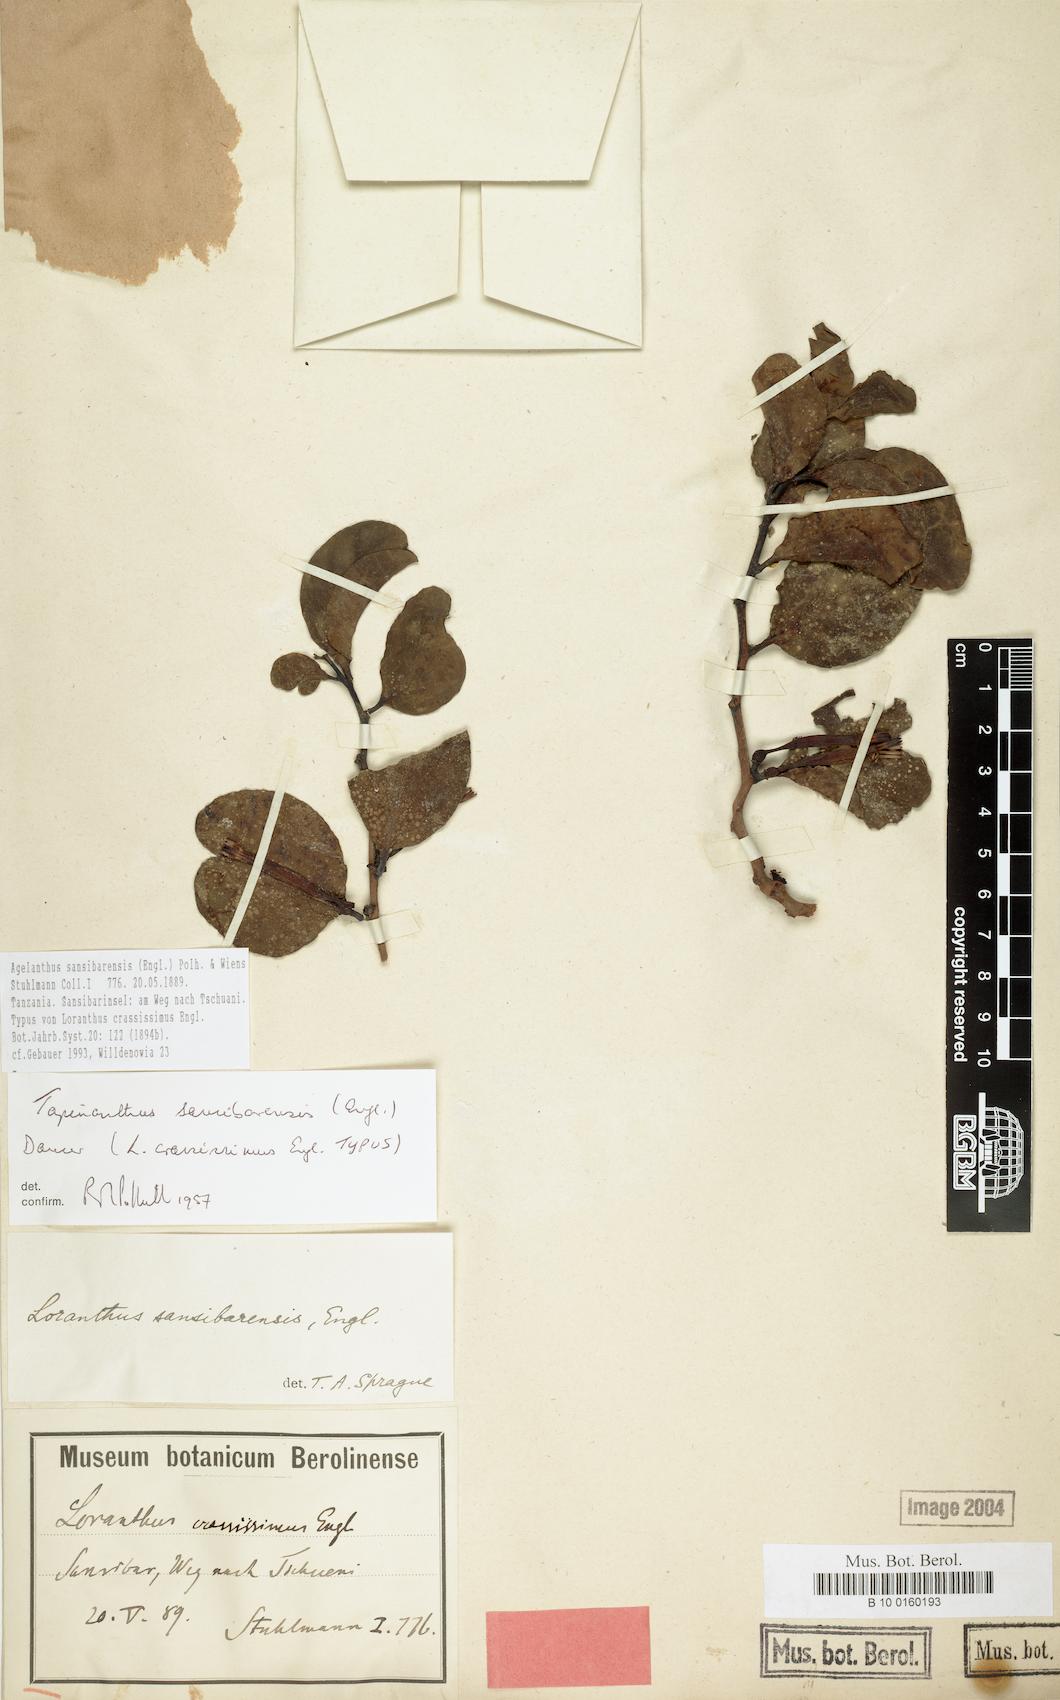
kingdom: Plantae
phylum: Tracheophyta
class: Magnoliopsida
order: Santalales
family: Loranthaceae
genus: Agelanthus
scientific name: Agelanthus sansibarensis
